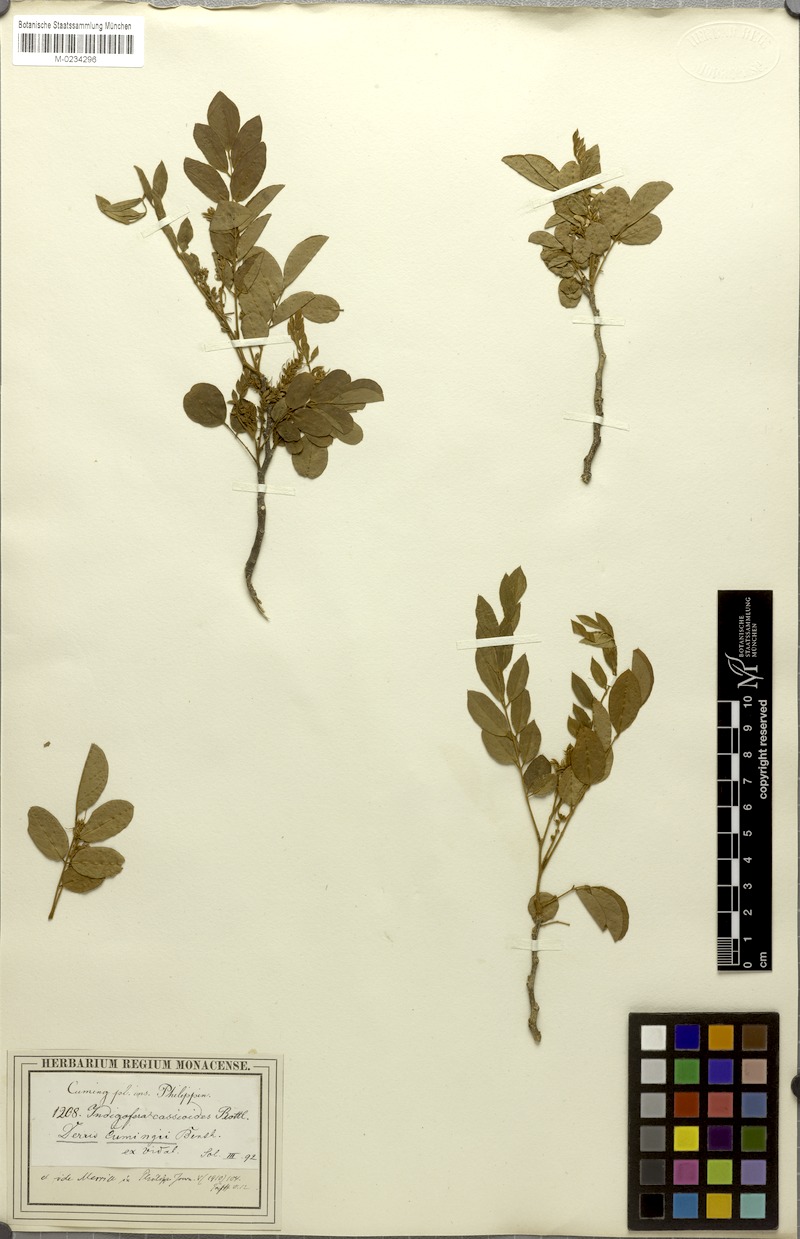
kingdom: Plantae
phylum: Tracheophyta
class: Magnoliopsida
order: Fabales
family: Fabaceae
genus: Brachypterum
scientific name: Brachypterum cumingii
